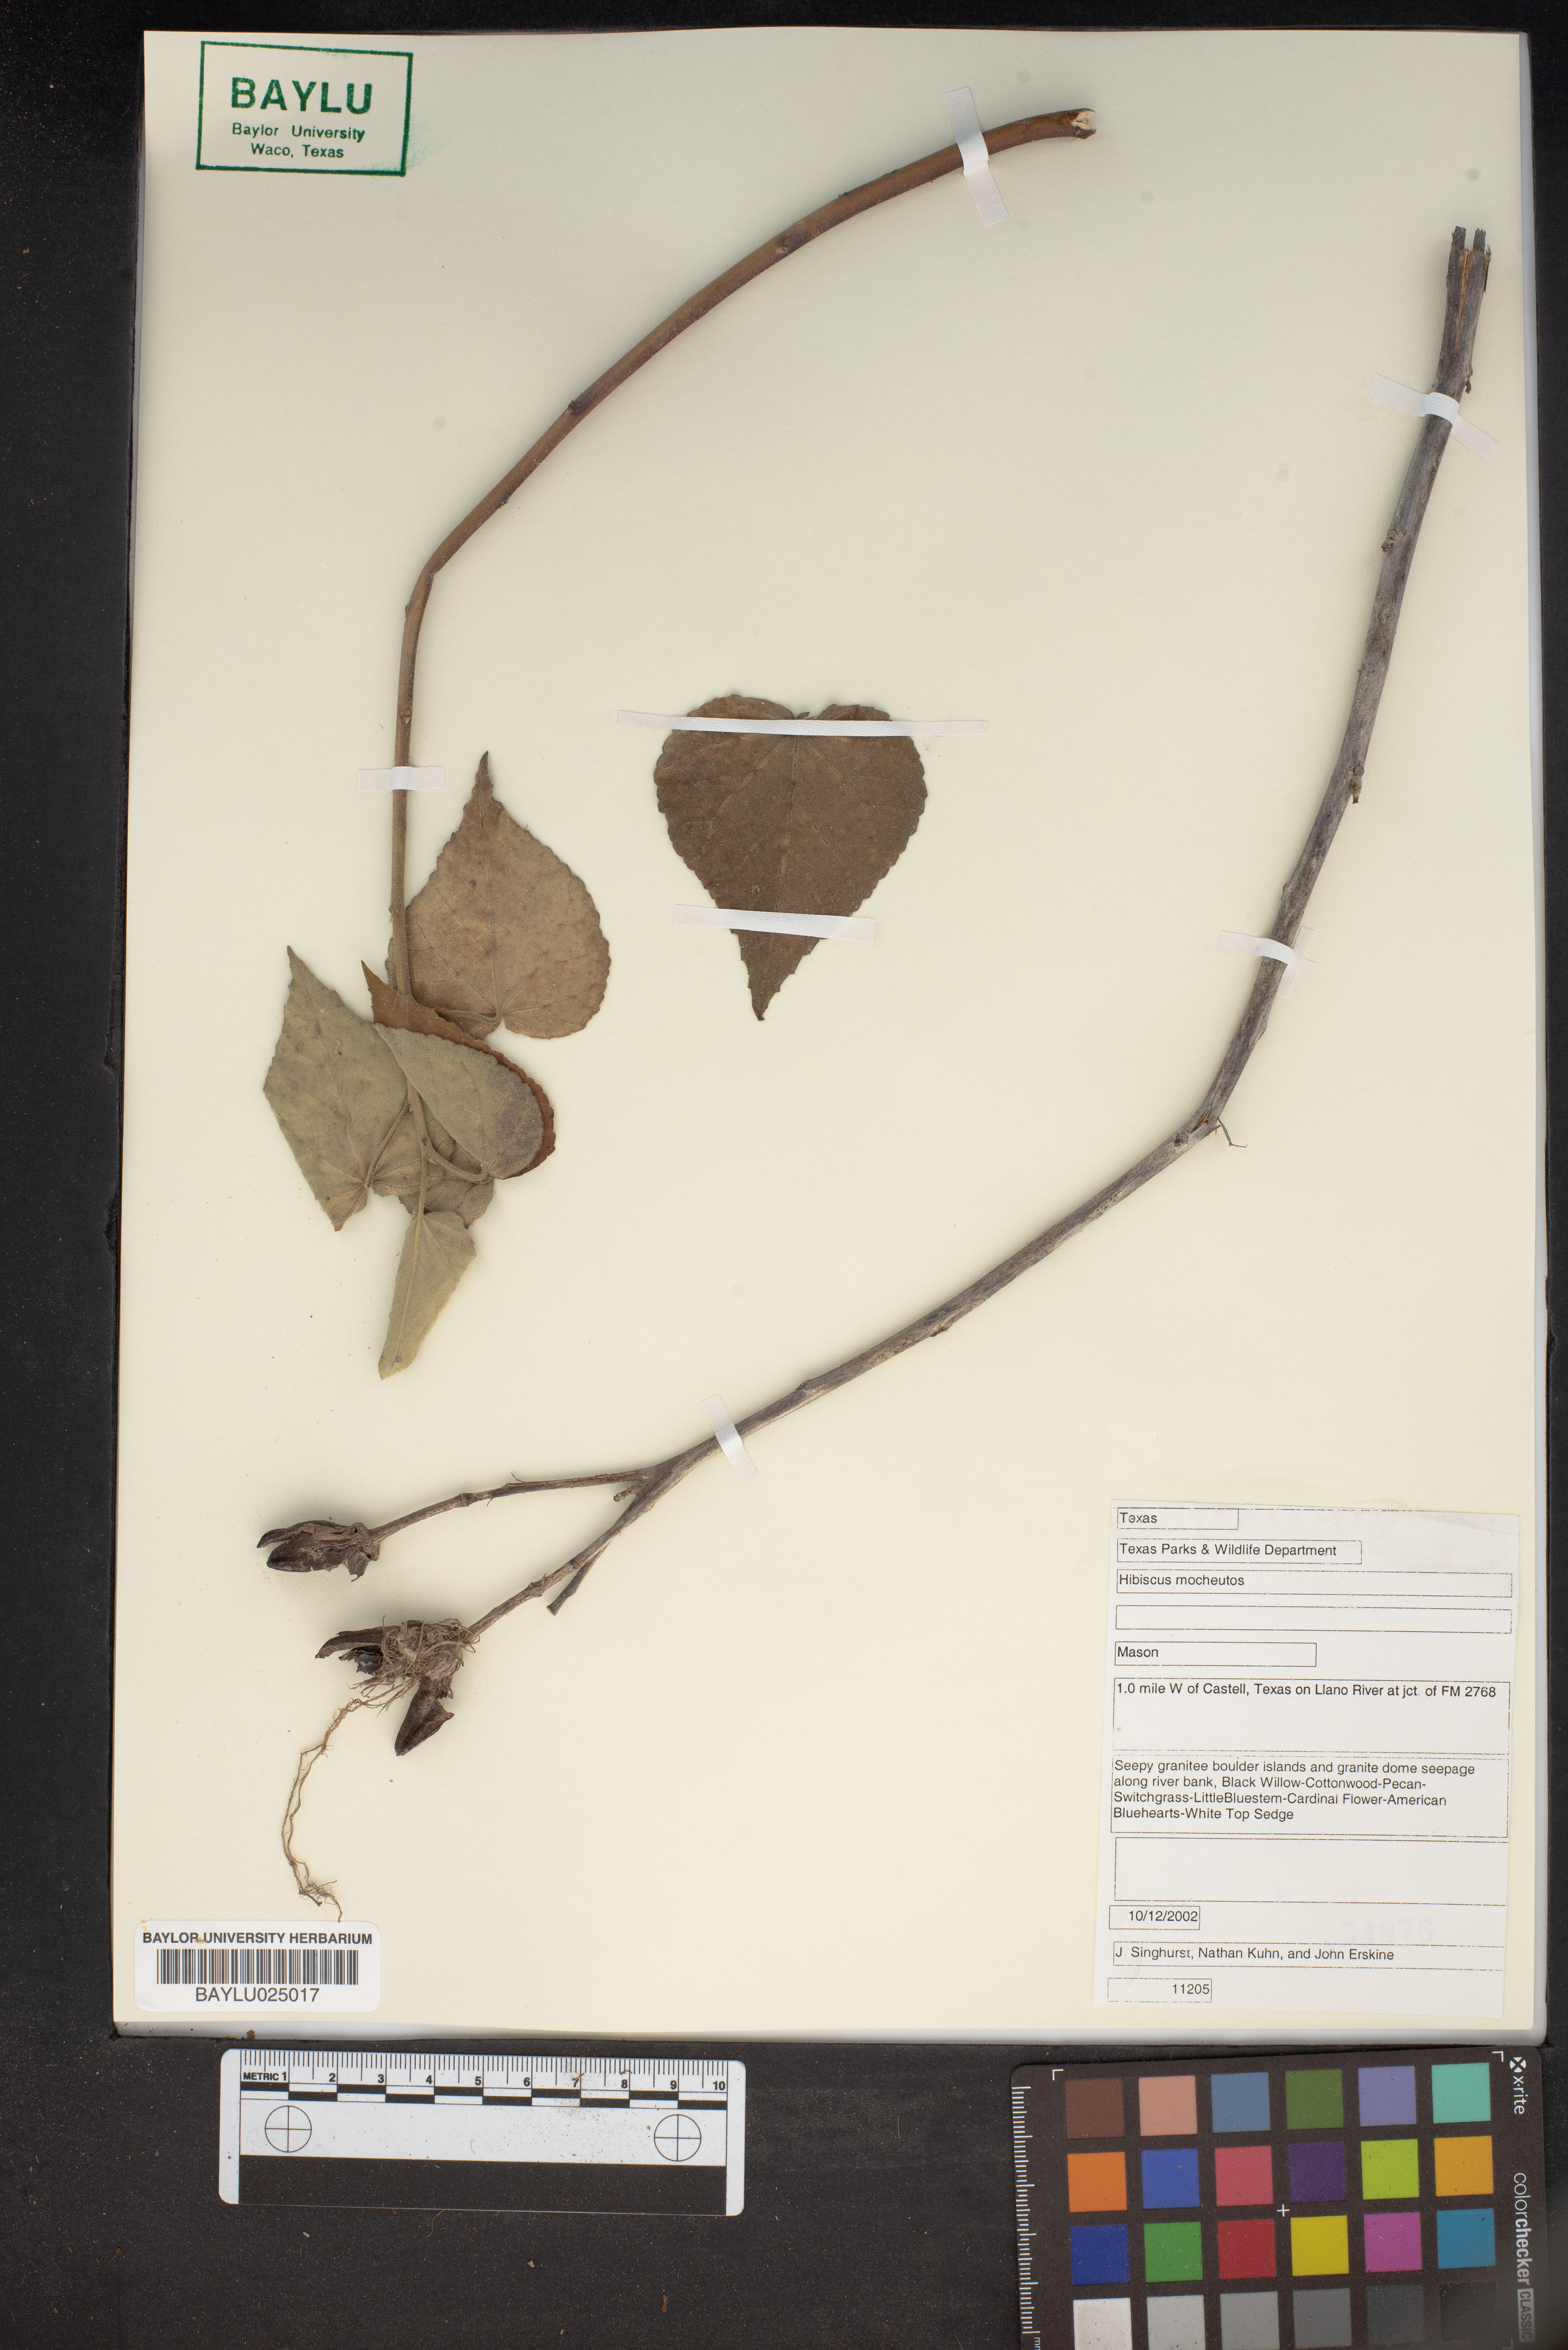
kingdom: Plantae
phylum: Tracheophyta
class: Magnoliopsida
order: Malvales
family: Malvaceae
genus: Hibiscus
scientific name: Hibiscus moscheutos
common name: Common rose-mallow
